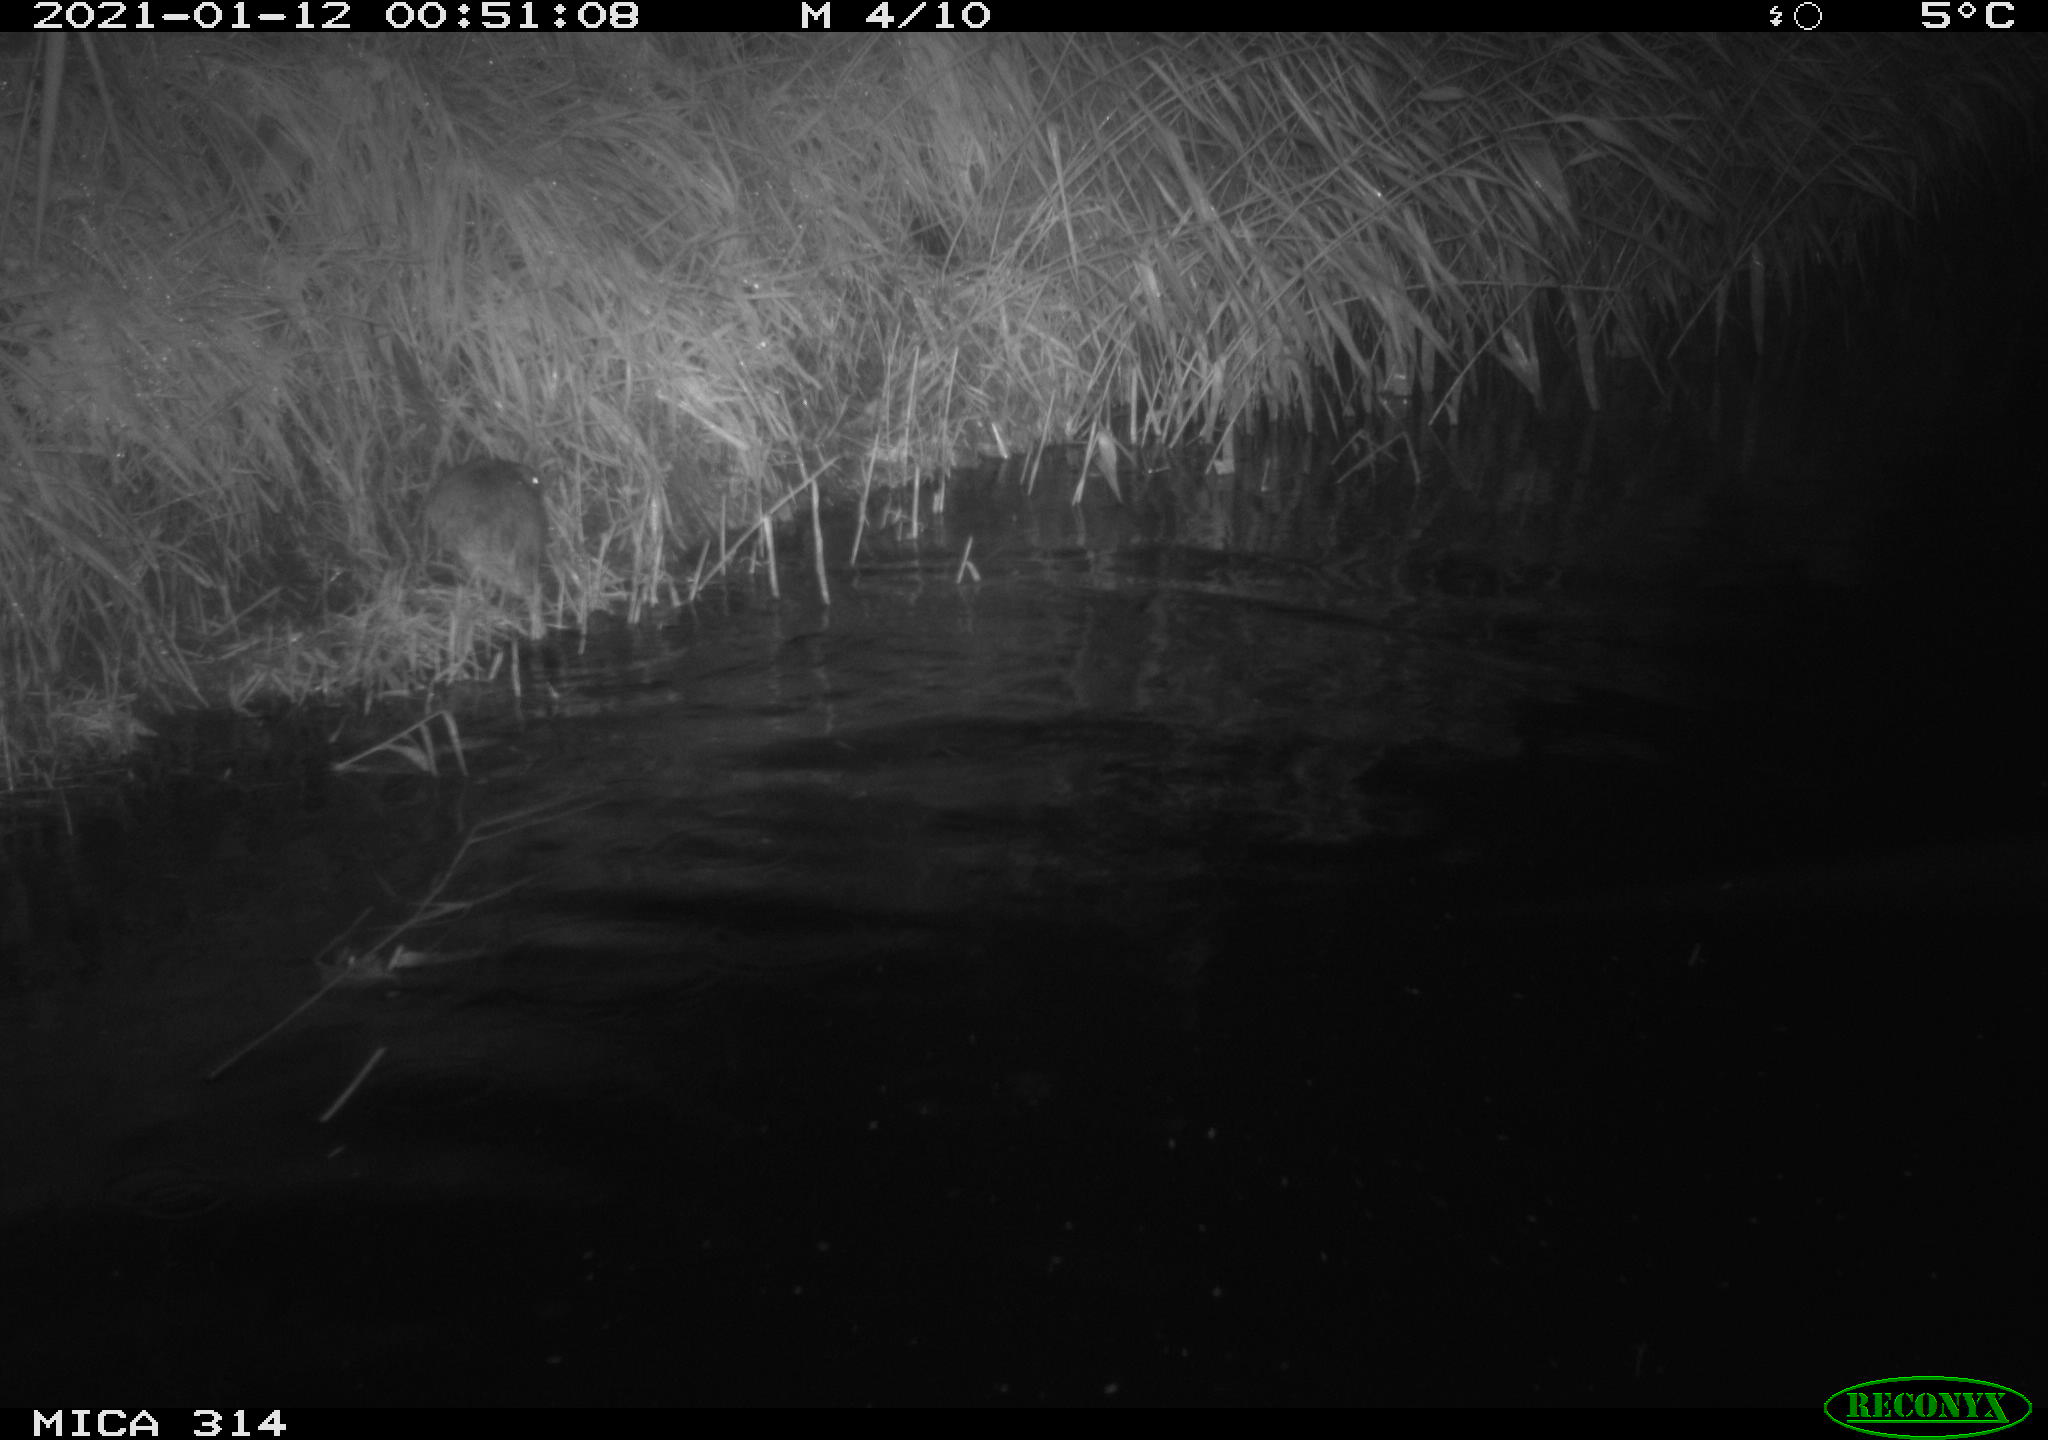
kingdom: Animalia
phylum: Chordata
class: Mammalia
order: Rodentia
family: Muridae
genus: Rattus
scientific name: Rattus norvegicus
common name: Brown rat
